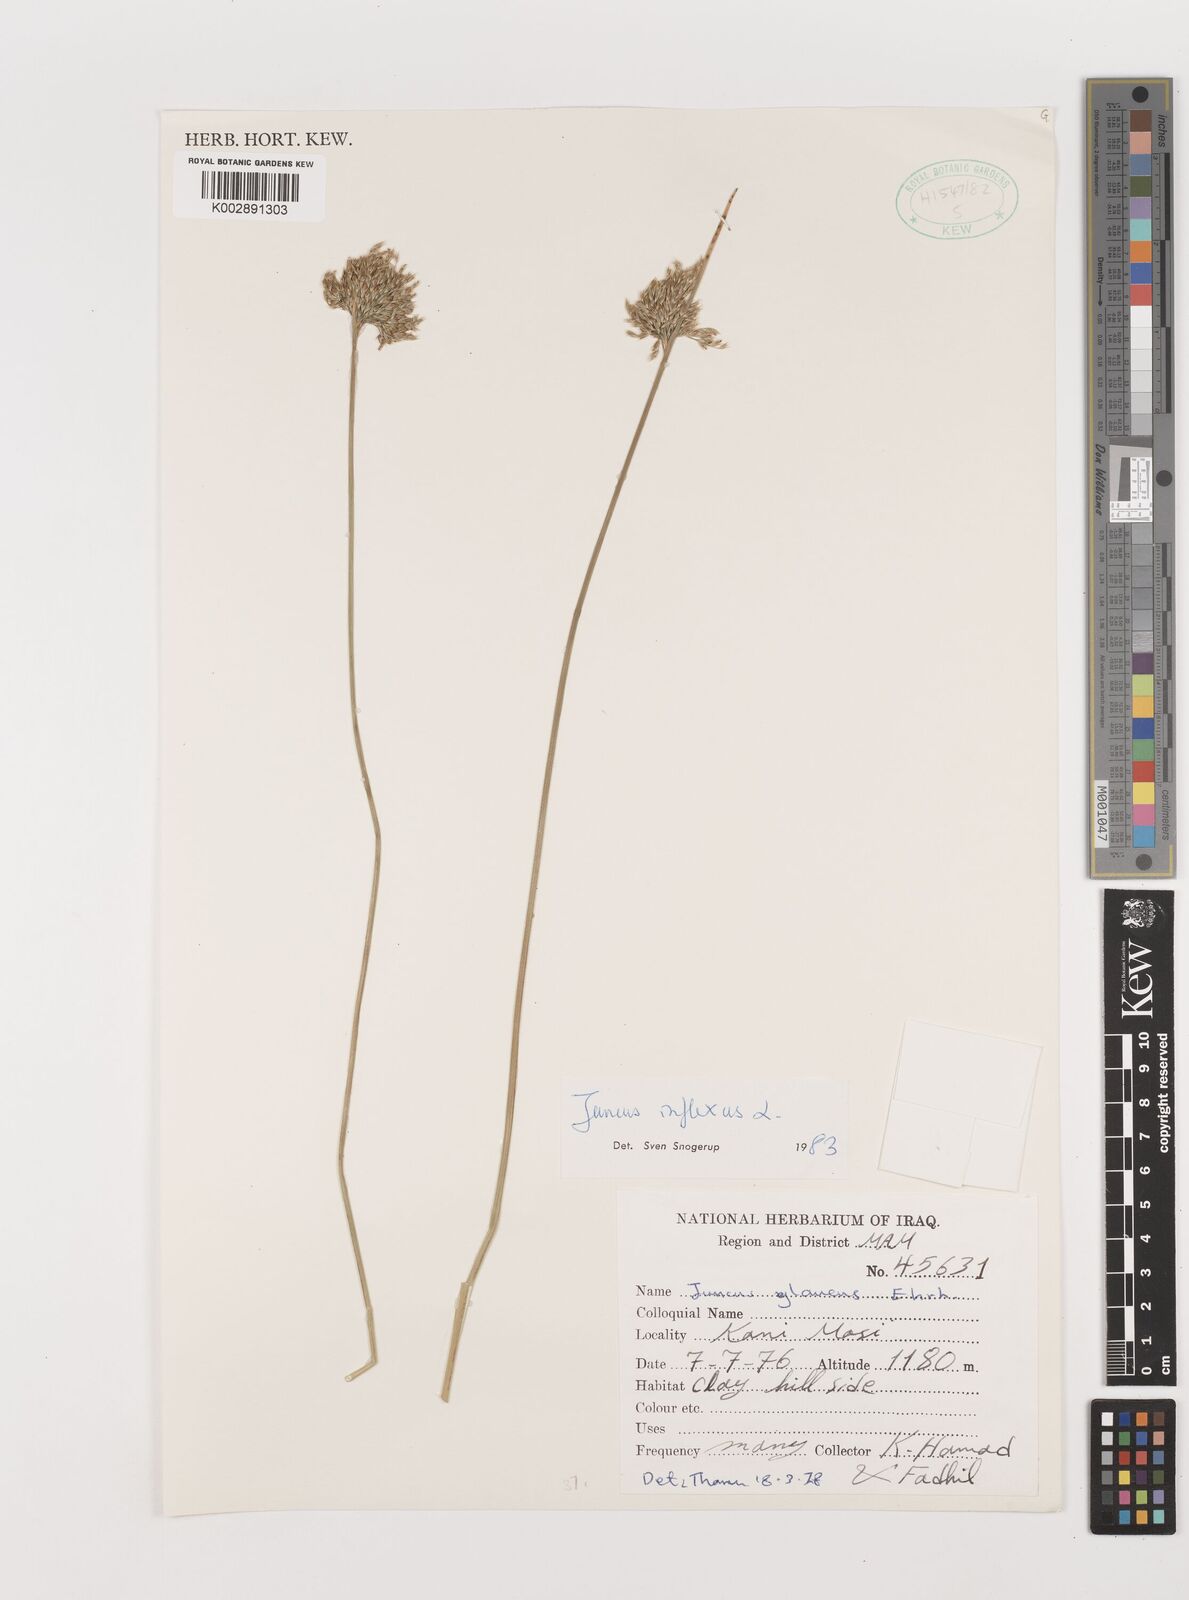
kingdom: Plantae
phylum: Tracheophyta
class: Liliopsida
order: Poales
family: Juncaceae
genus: Juncus
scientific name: Juncus inflexus
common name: Hard rush
